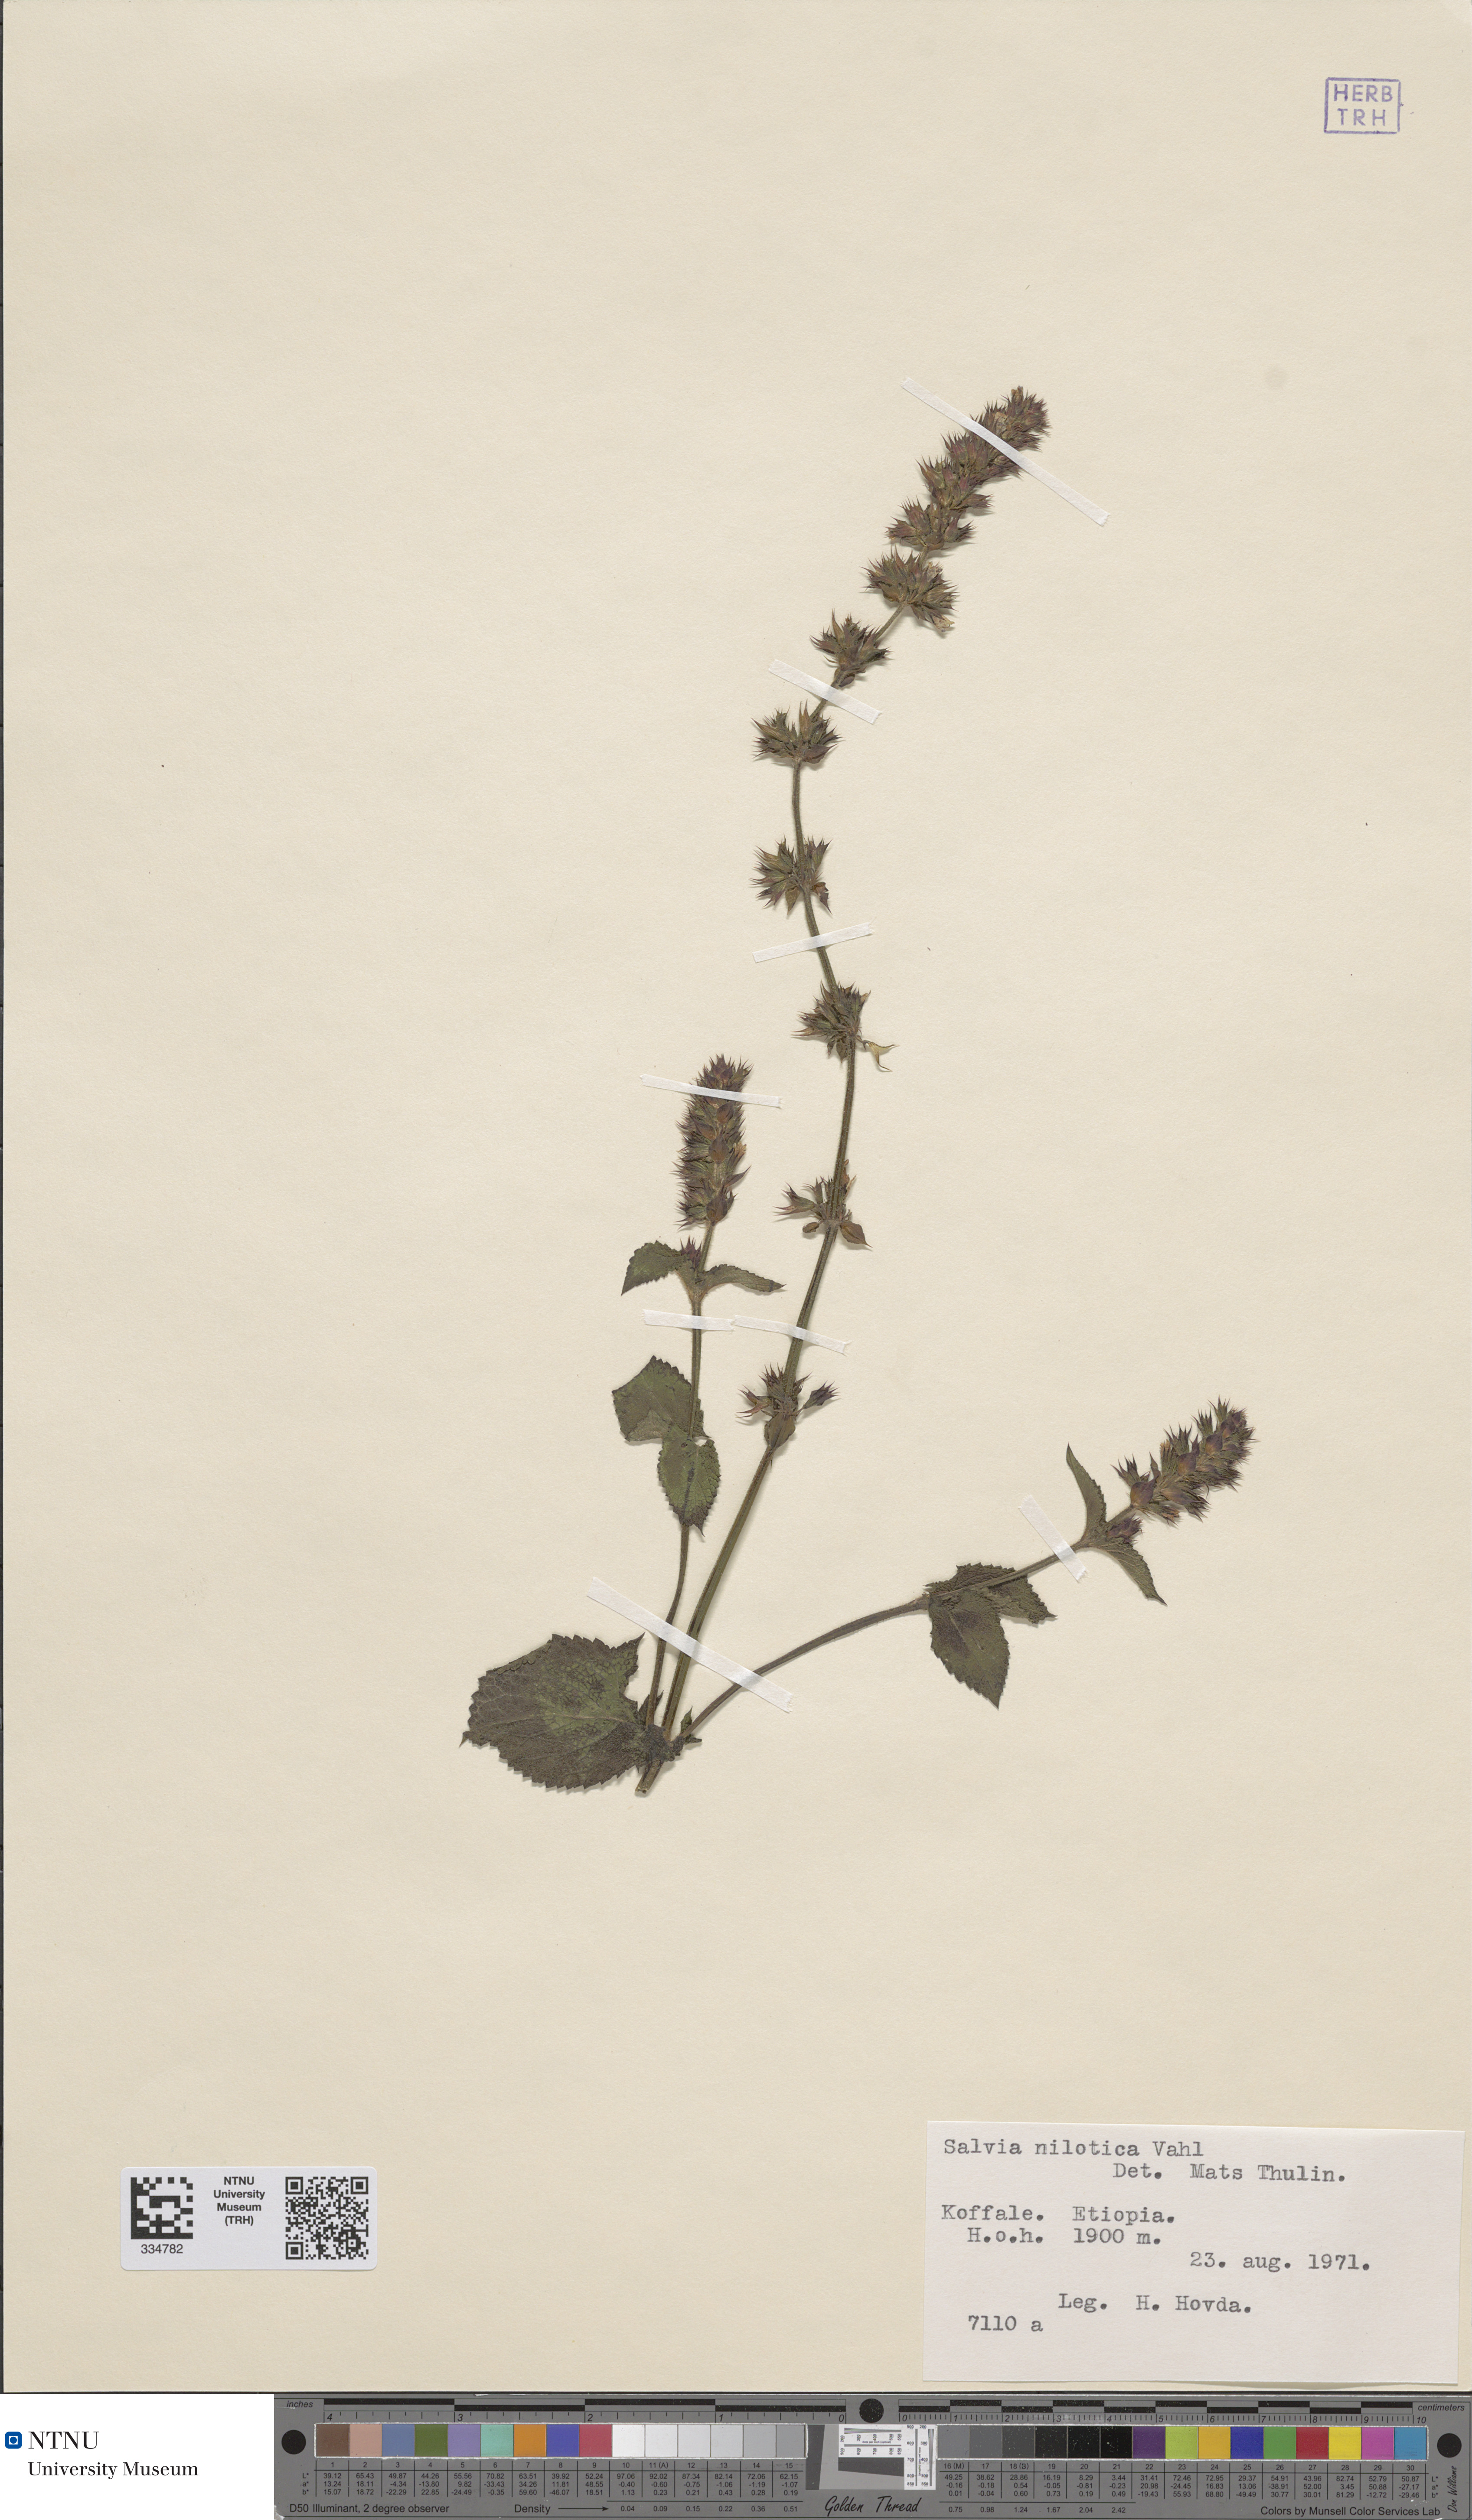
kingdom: Plantae
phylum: Tracheophyta
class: Magnoliopsida
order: Lamiales
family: Lamiaceae
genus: Salvia
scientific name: Salvia nilotica
